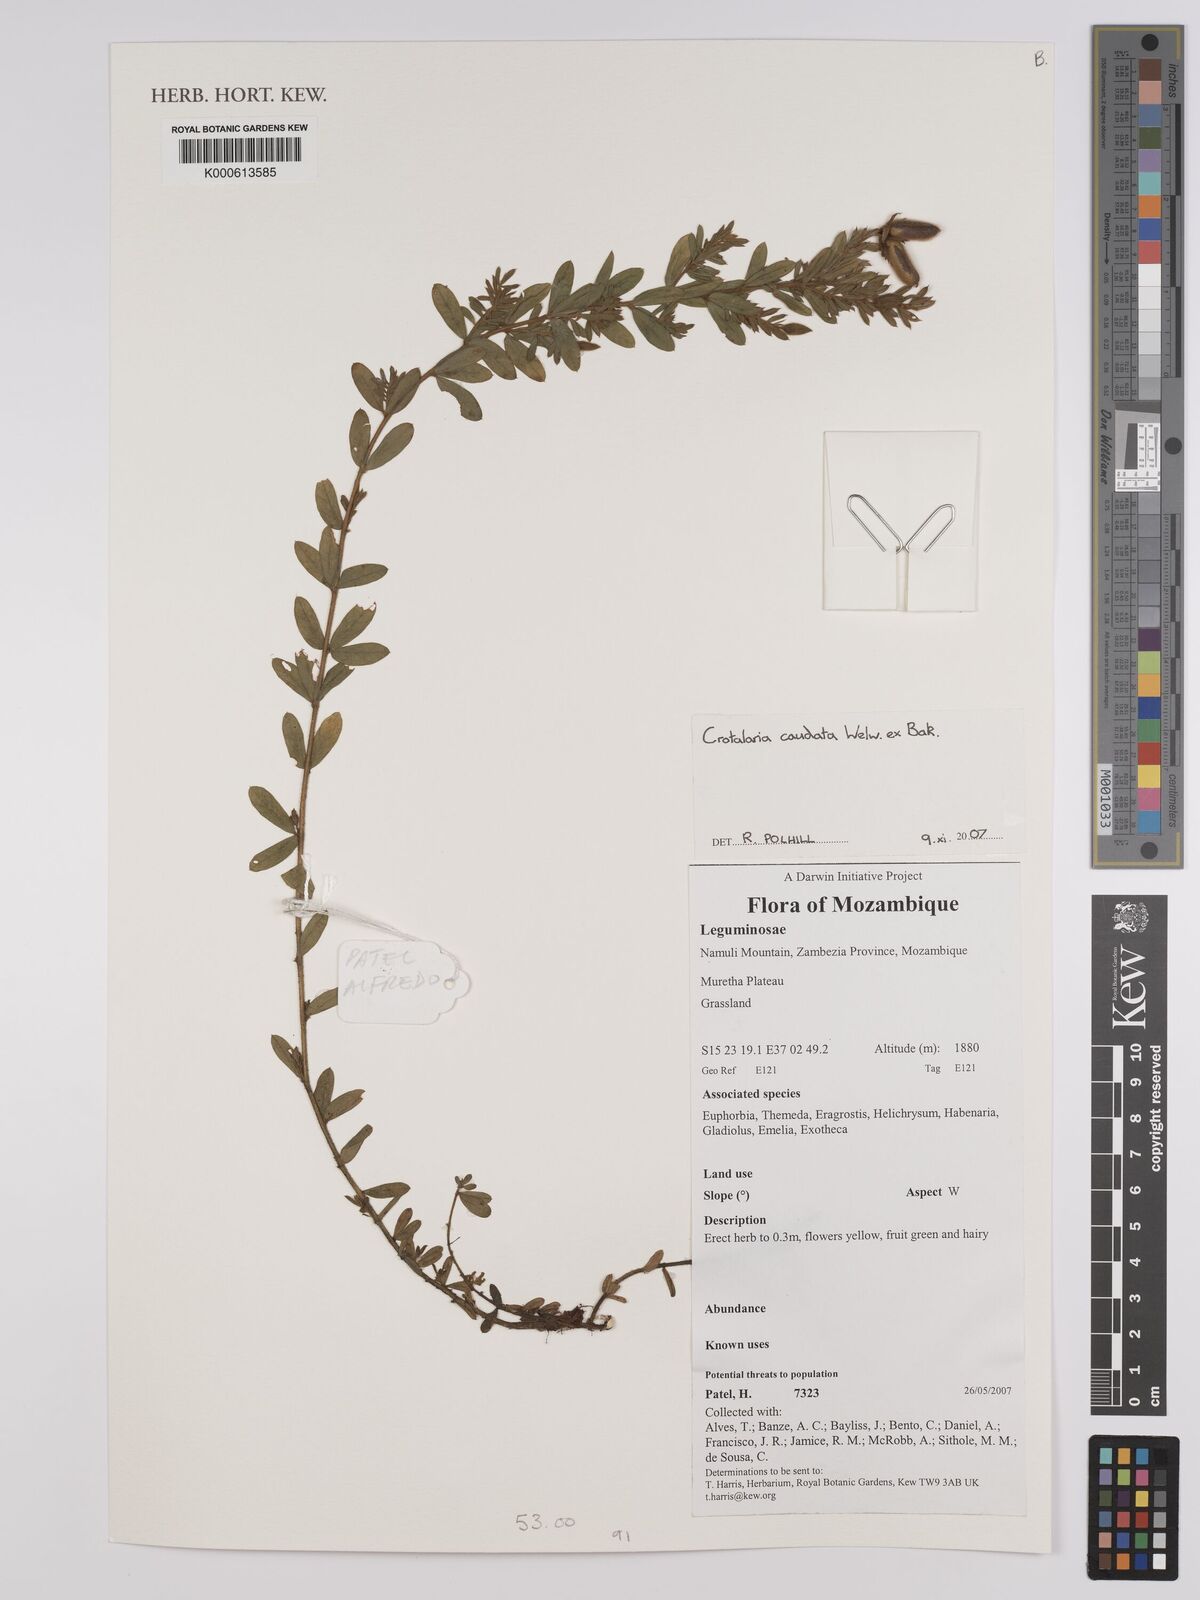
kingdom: Plantae
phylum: Tracheophyta
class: Magnoliopsida
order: Fabales
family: Fabaceae
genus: Crotalaria
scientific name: Crotalaria caudata
